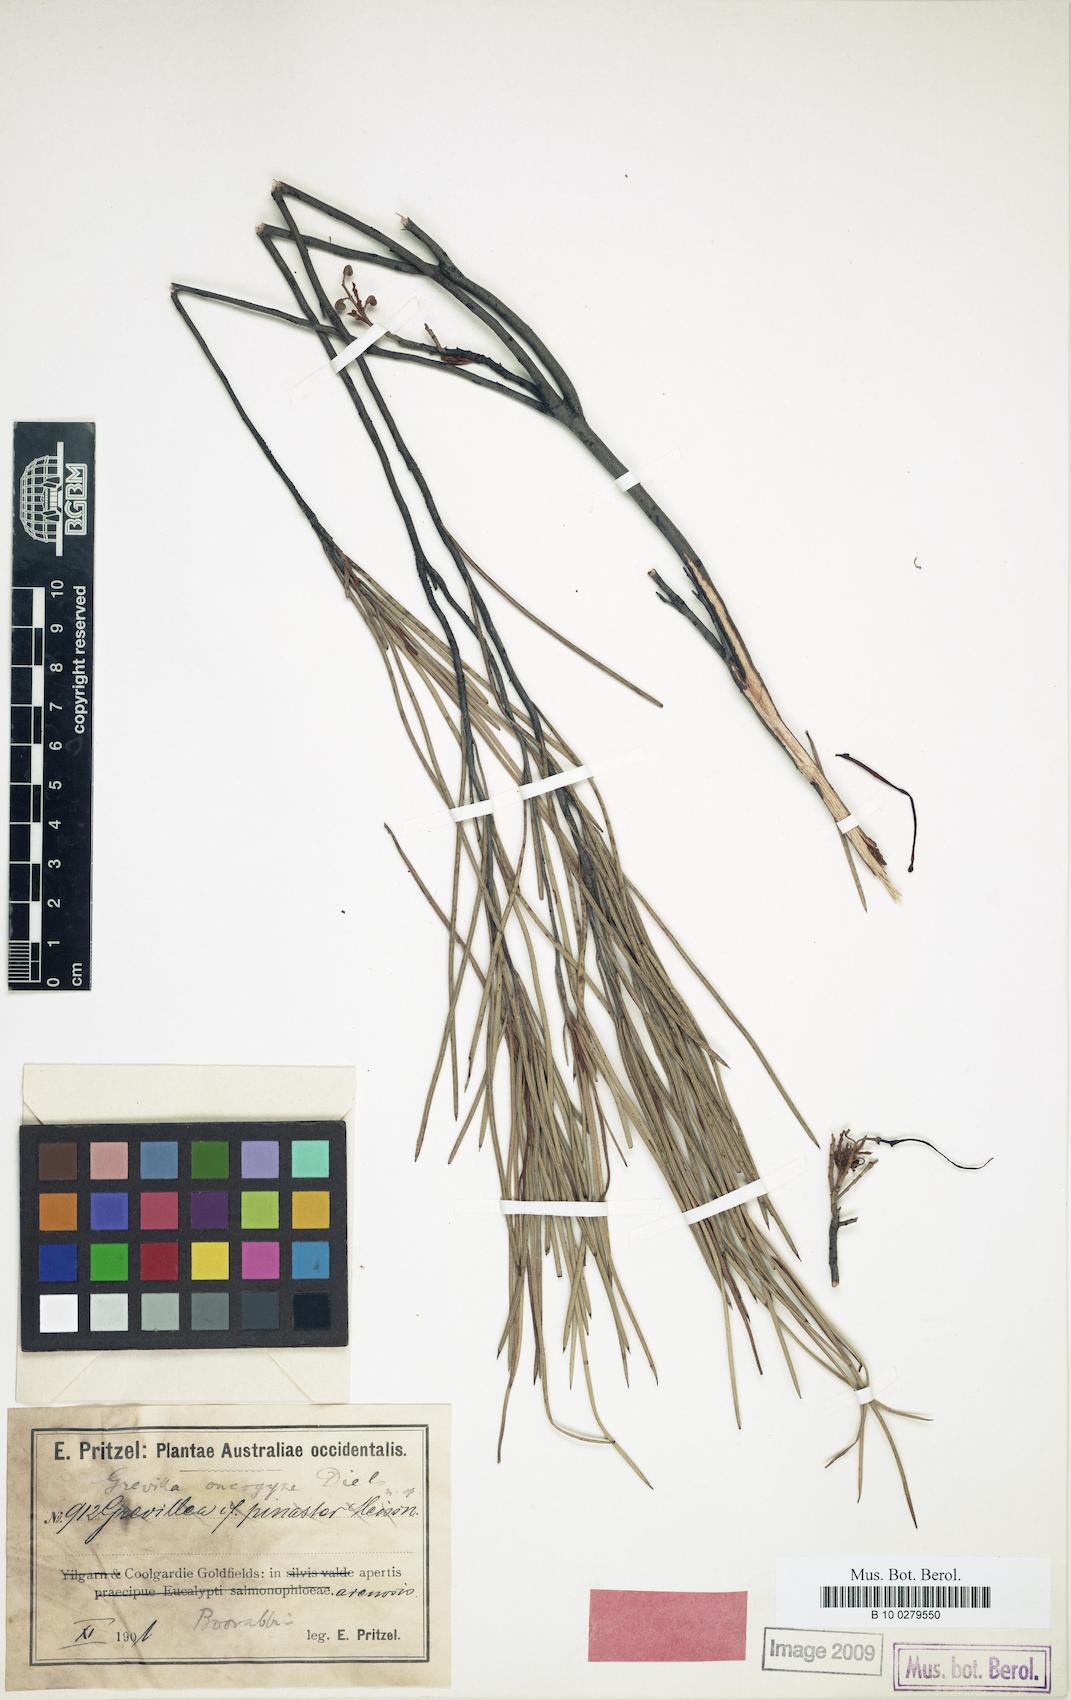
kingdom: Plantae
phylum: Tracheophyta
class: Magnoliopsida
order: Proteales
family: Proteaceae
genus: Grevillea
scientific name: Grevillea oncogyne
